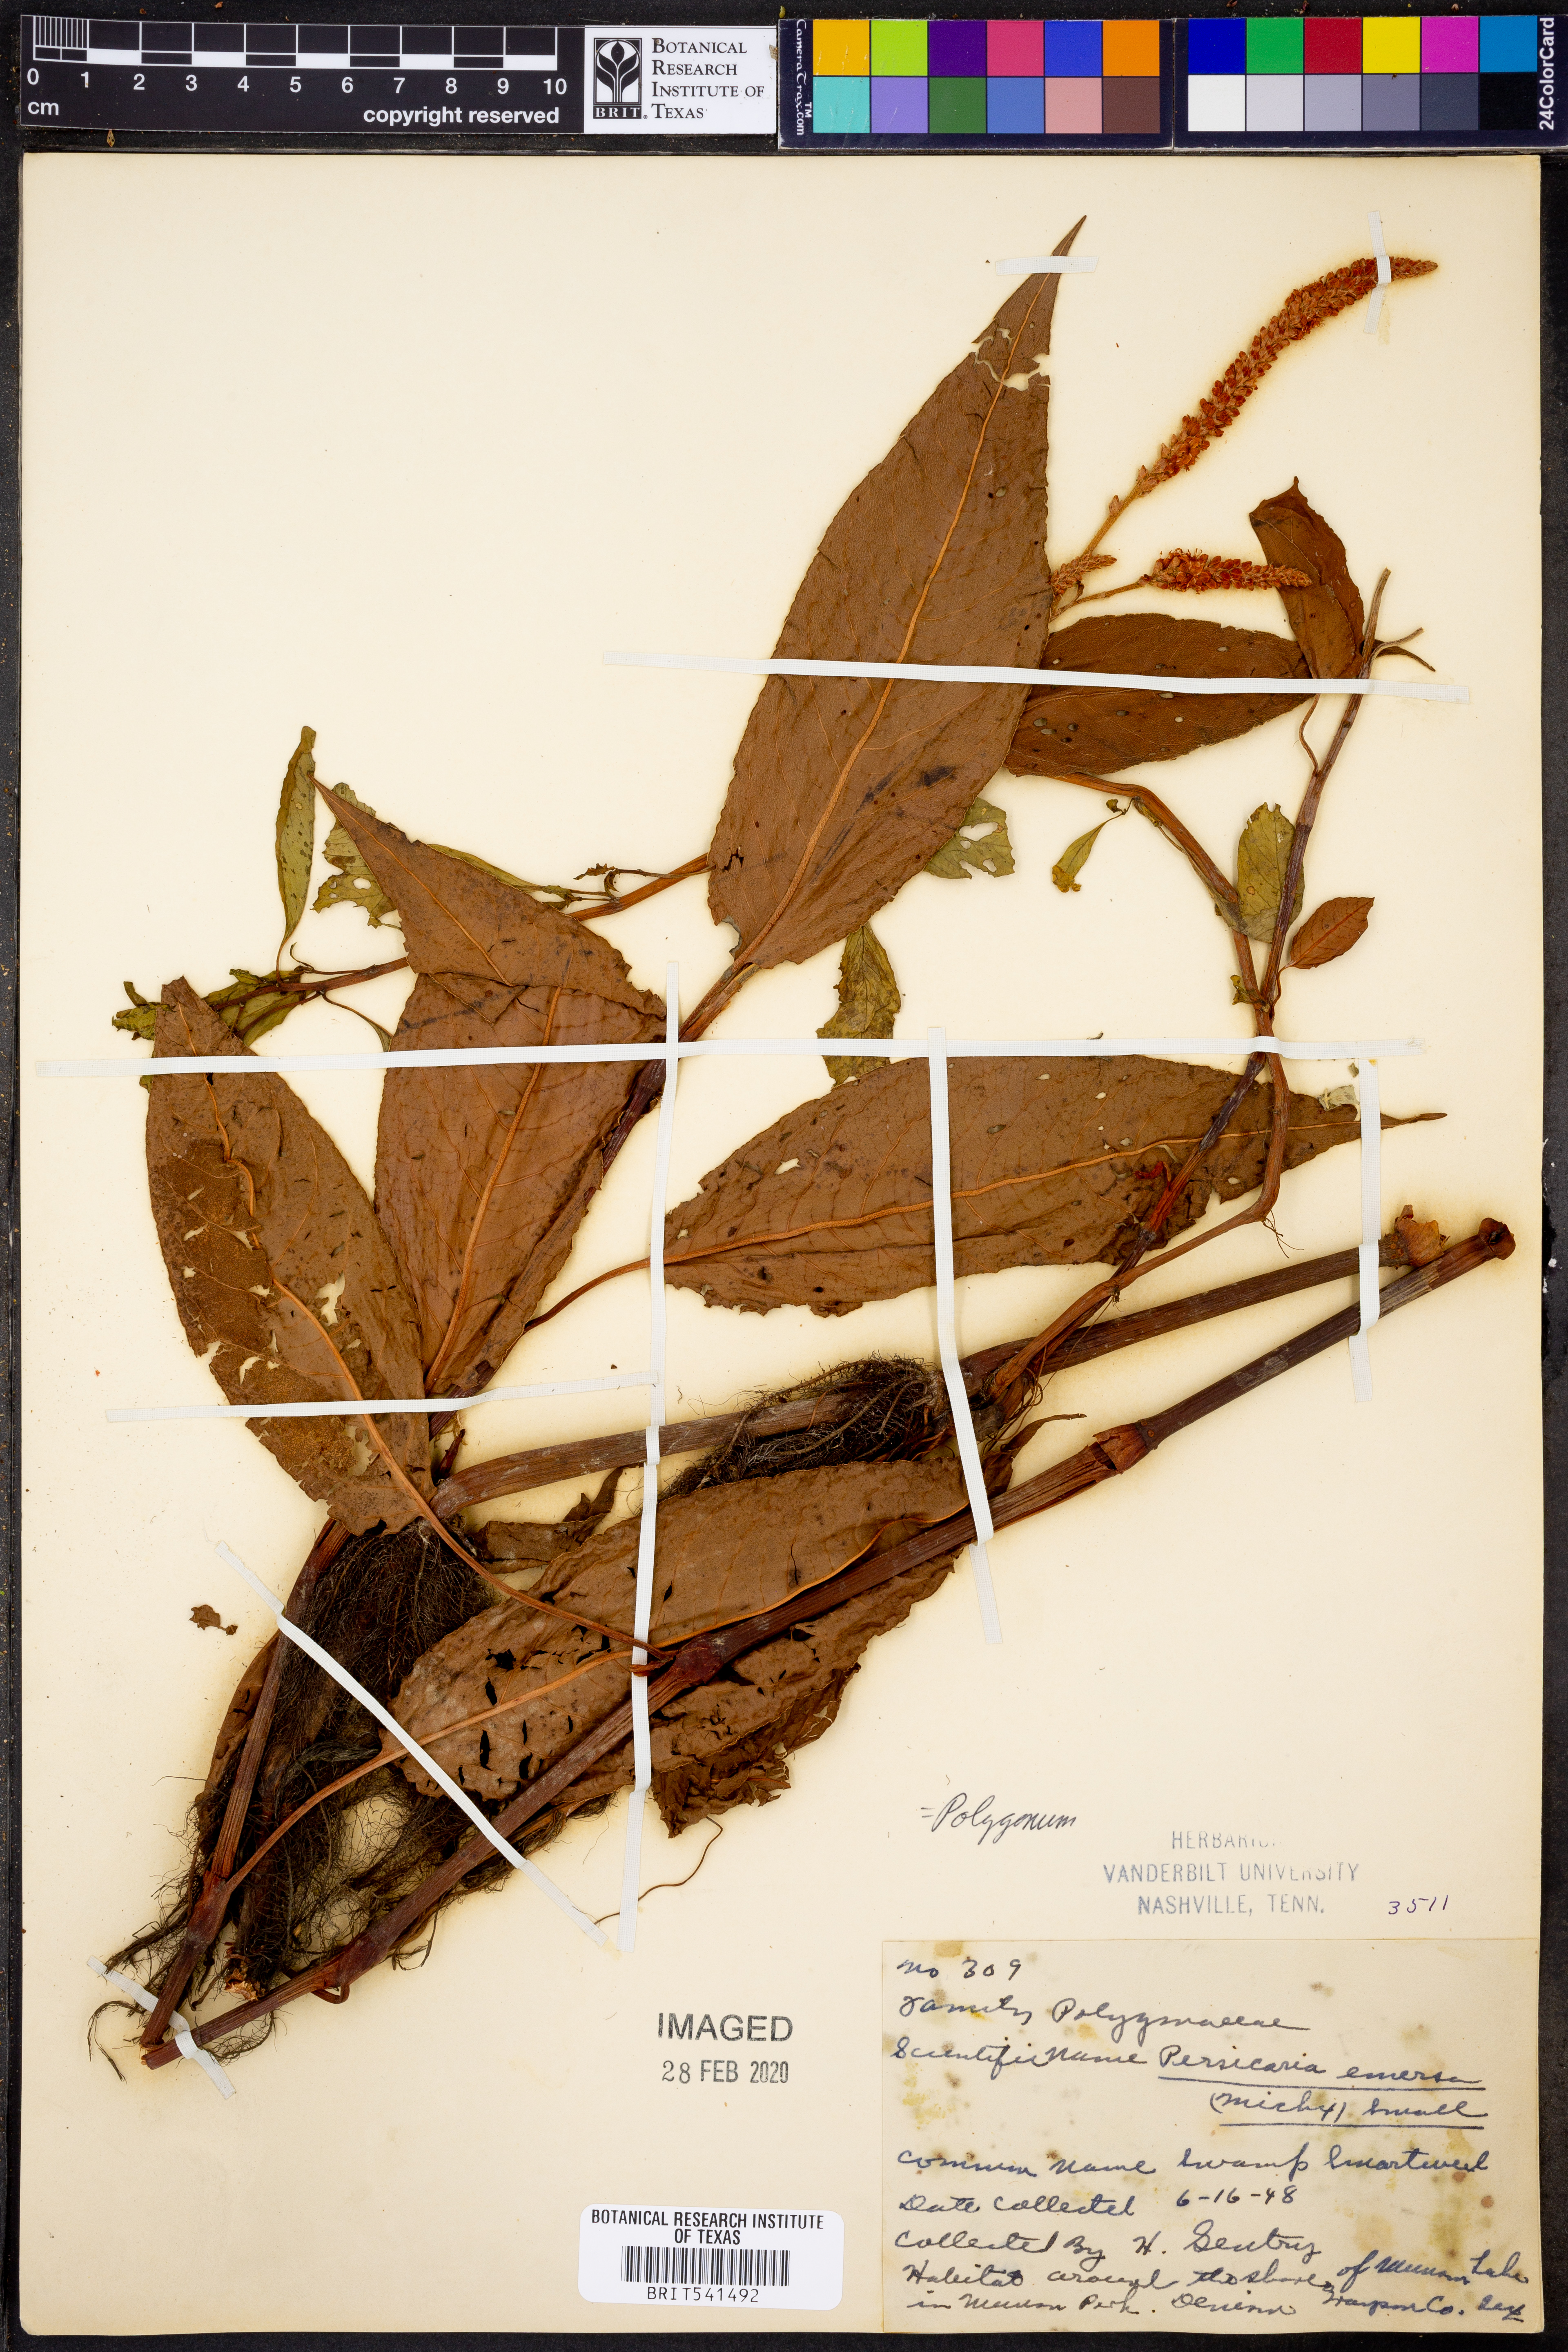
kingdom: Plantae
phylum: Tracheophyta
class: Magnoliopsida
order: Caryophyllales
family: Polygonaceae
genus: Persicaria
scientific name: Persicaria amphibia
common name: Amphibious bistort
